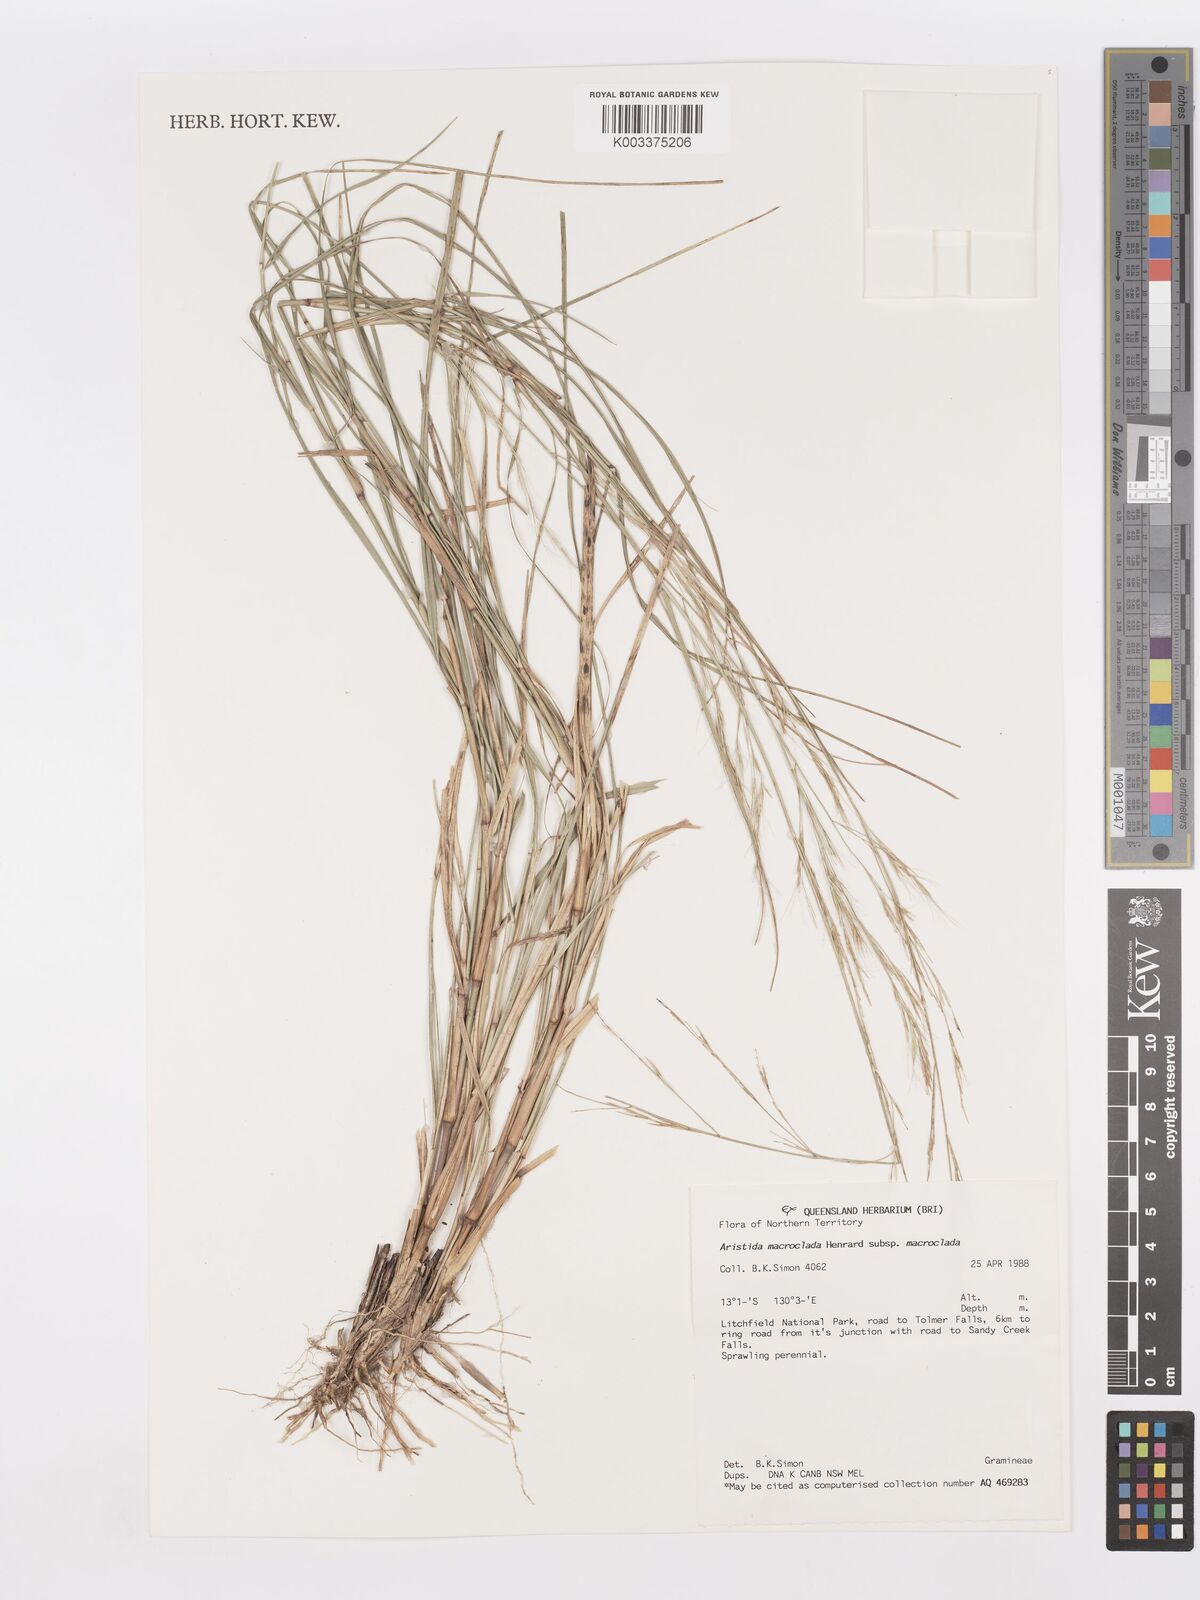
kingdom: Plantae
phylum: Tracheophyta
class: Liliopsida
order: Poales
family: Poaceae
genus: Aristida
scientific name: Aristida macroclada
